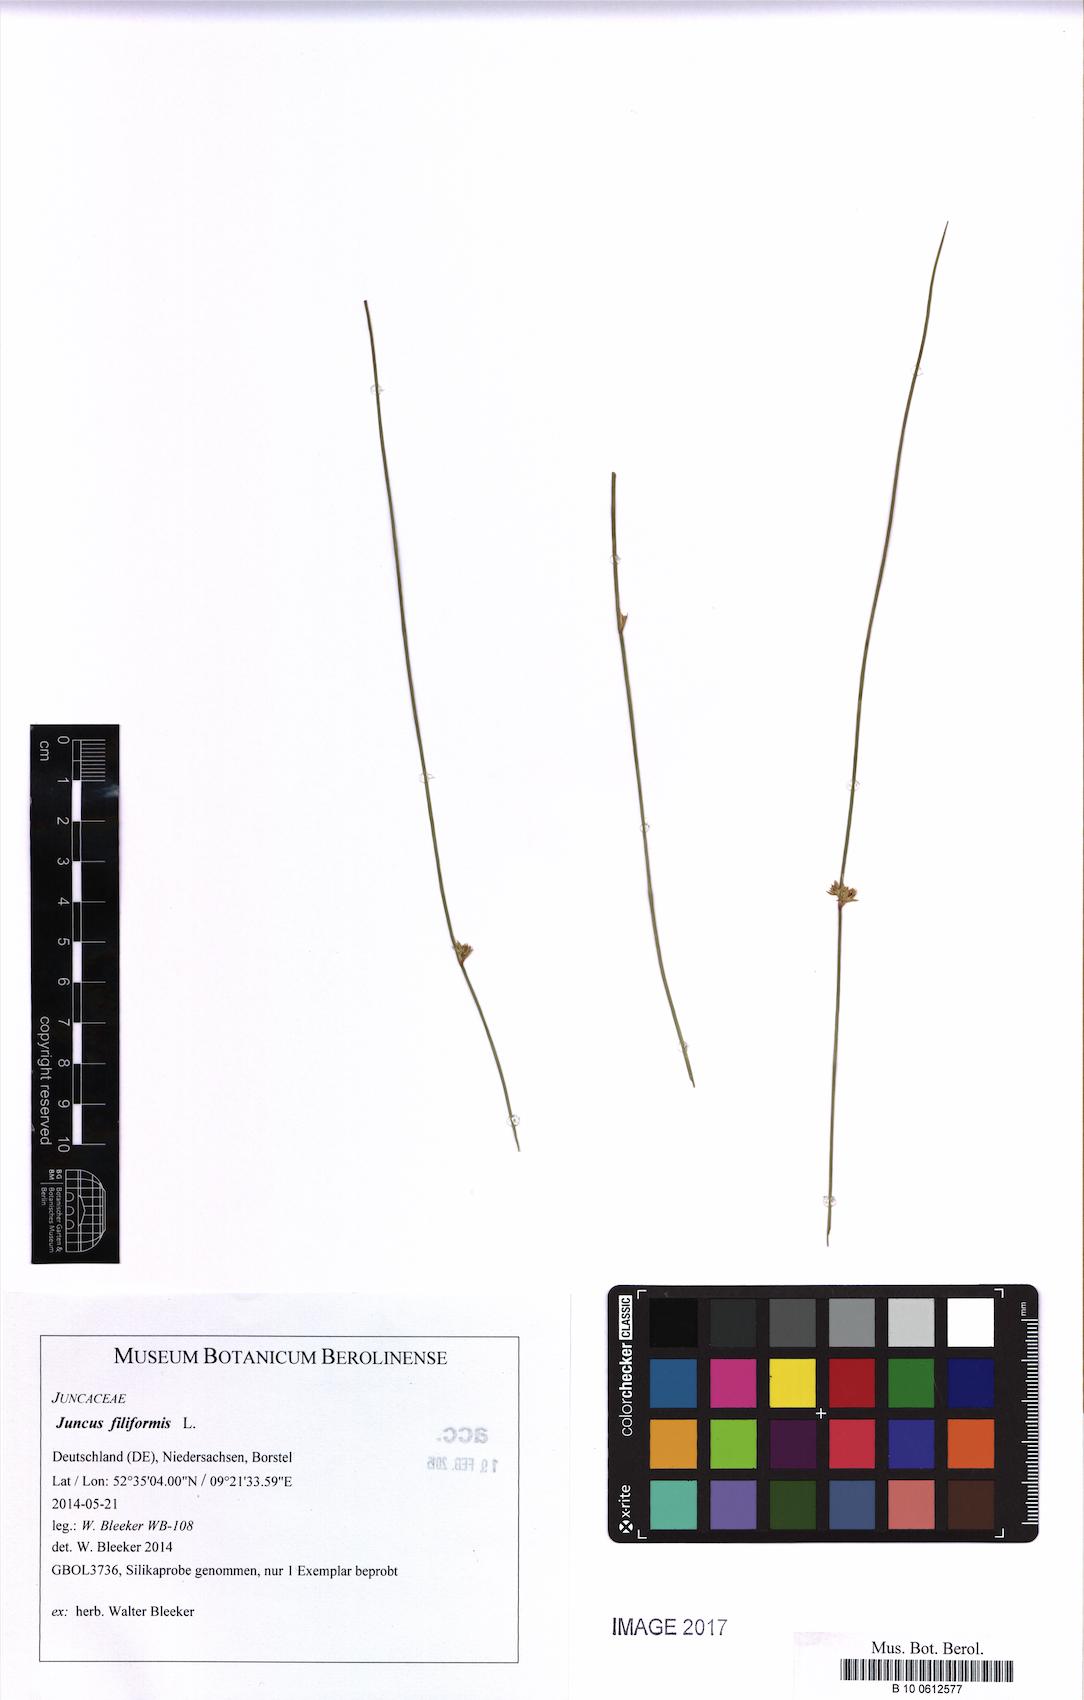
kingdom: Plantae
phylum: Tracheophyta
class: Liliopsida
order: Poales
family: Juncaceae
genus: Juncus
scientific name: Juncus filiformis
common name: Thread rush
